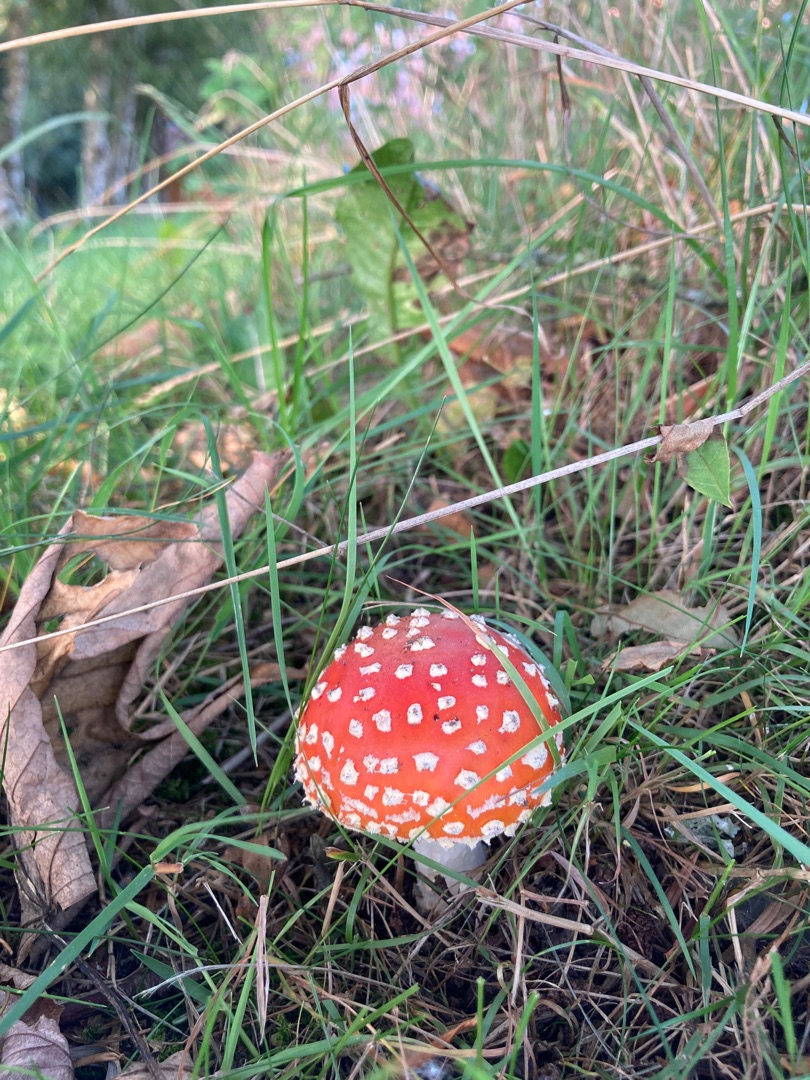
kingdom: Fungi
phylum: Basidiomycota
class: Agaricomycetes
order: Agaricales
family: Amanitaceae
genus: Amanita
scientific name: Amanita muscaria
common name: Rød fluesvamp
